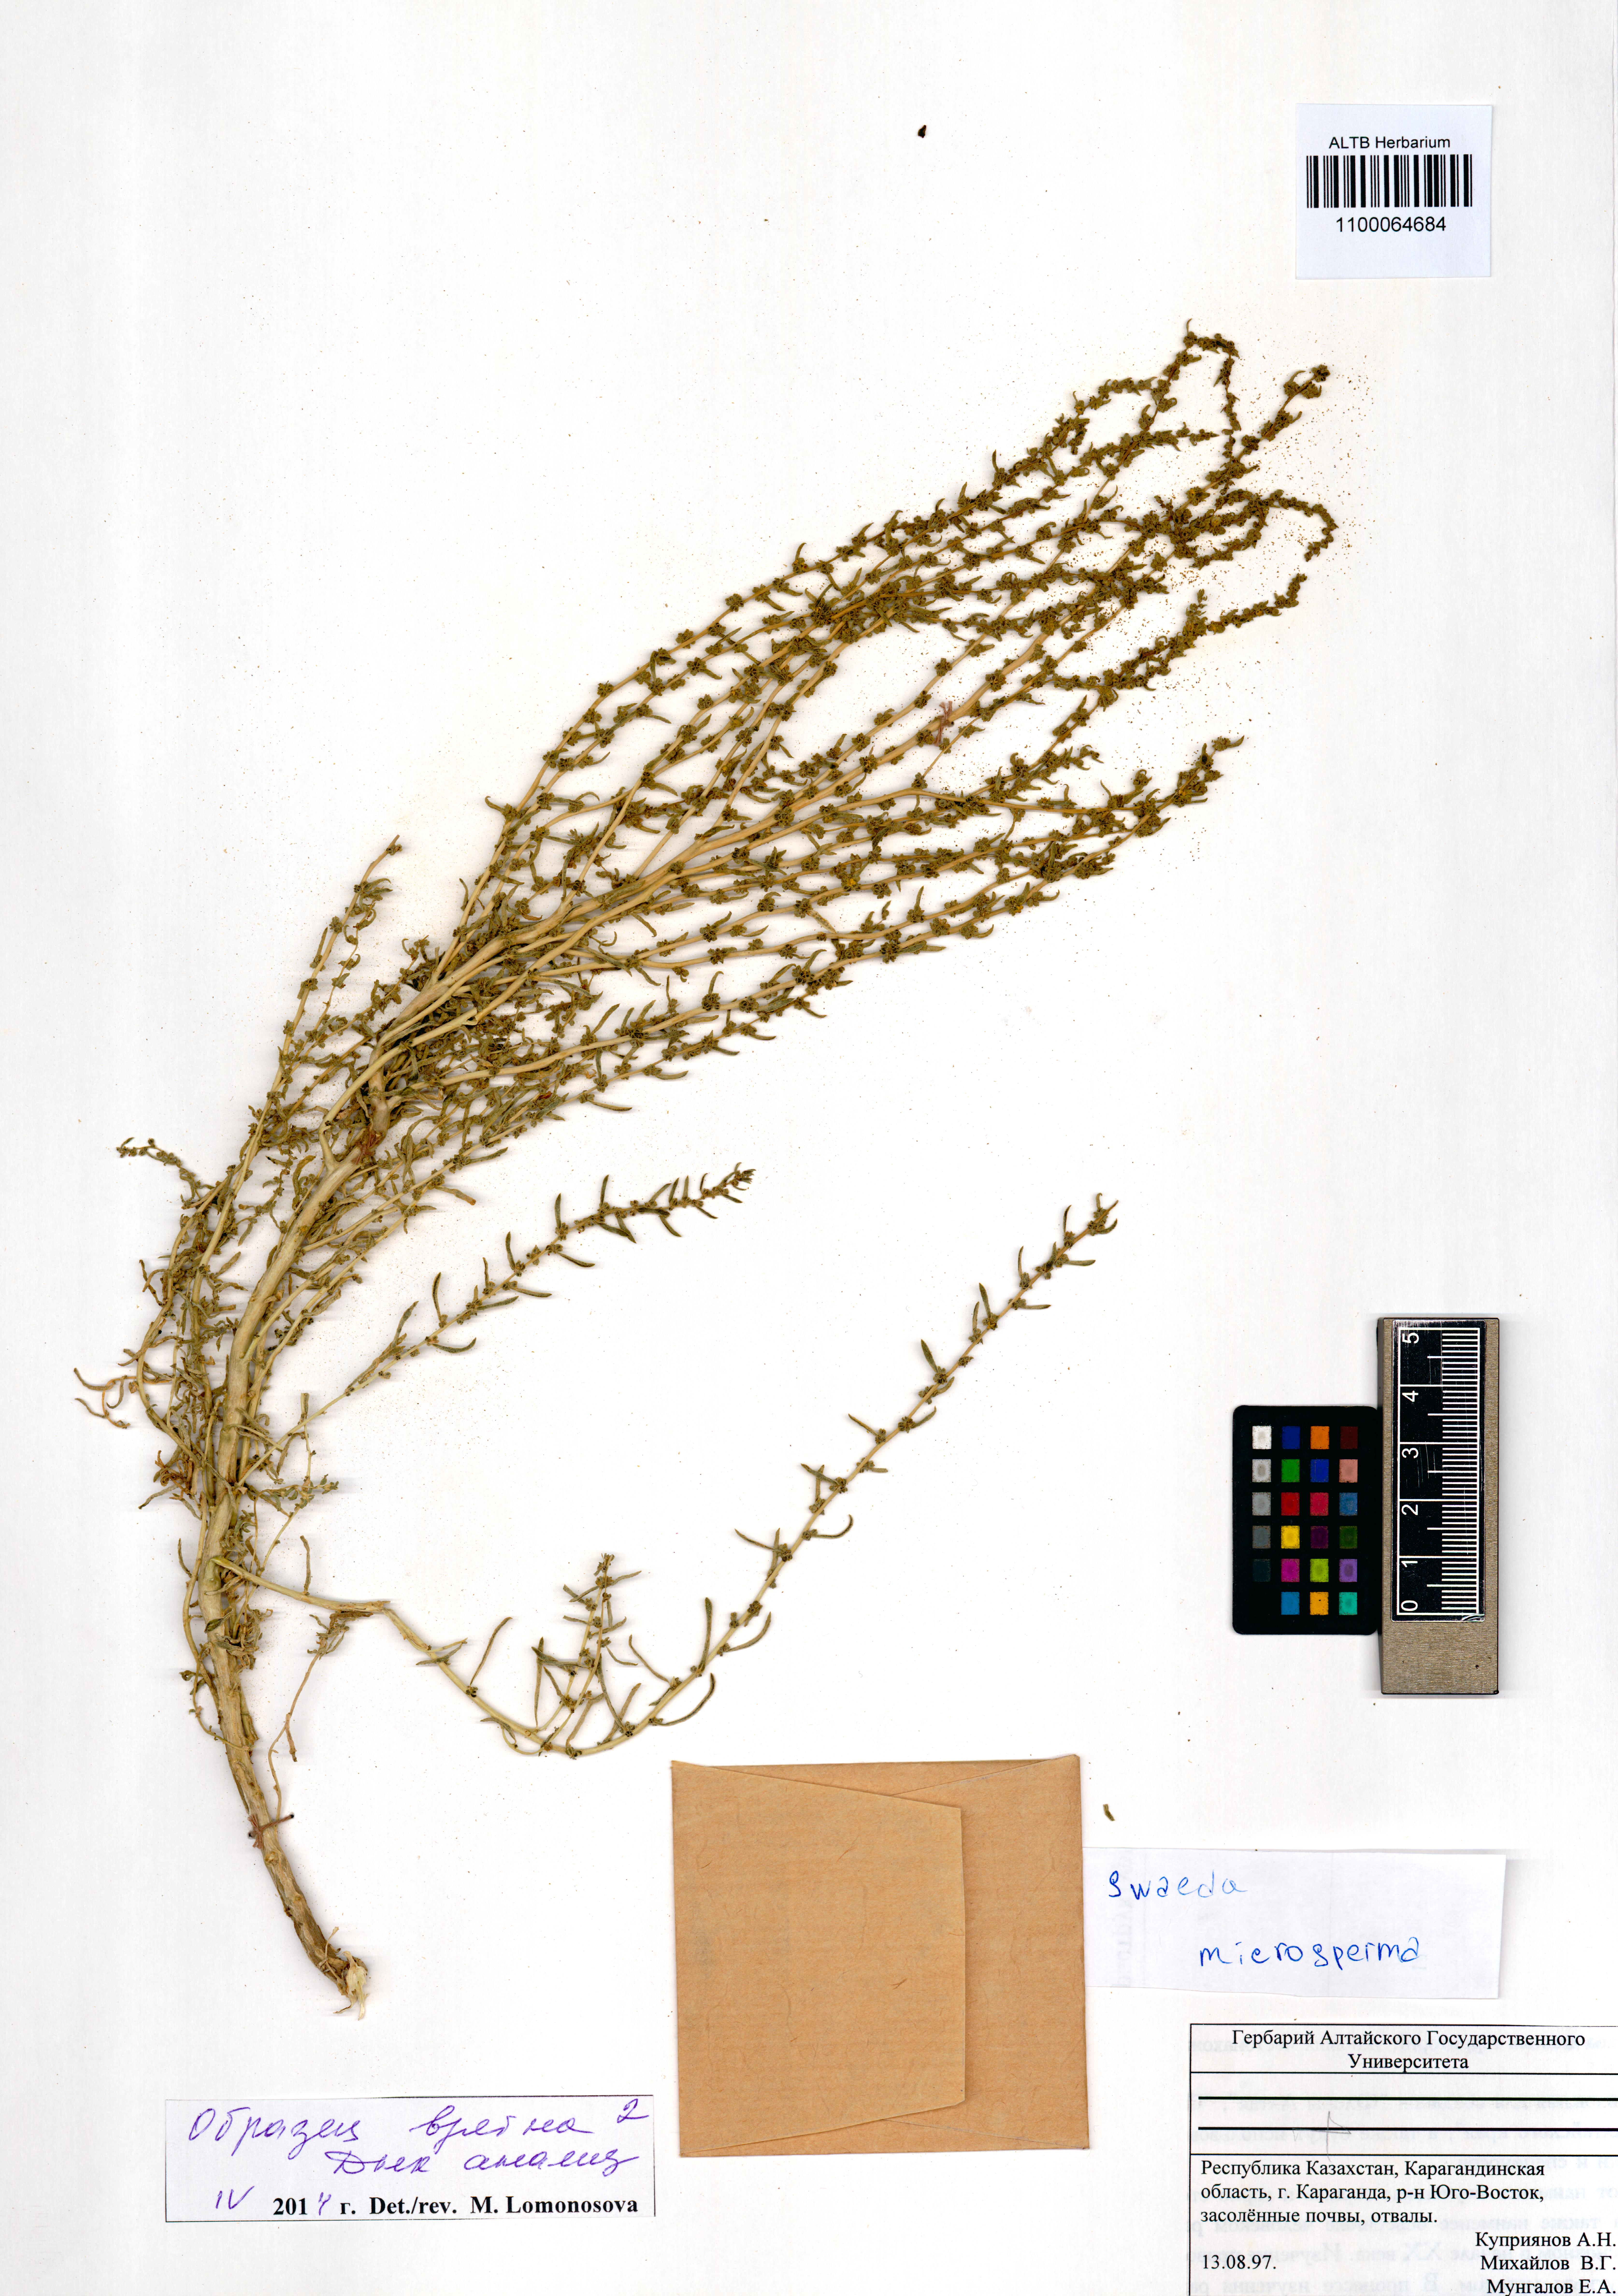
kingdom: Plantae
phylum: Tracheophyta
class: Magnoliopsida
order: Caryophyllales
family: Amaranthaceae
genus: Suaeda
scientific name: Suaeda microsperma
